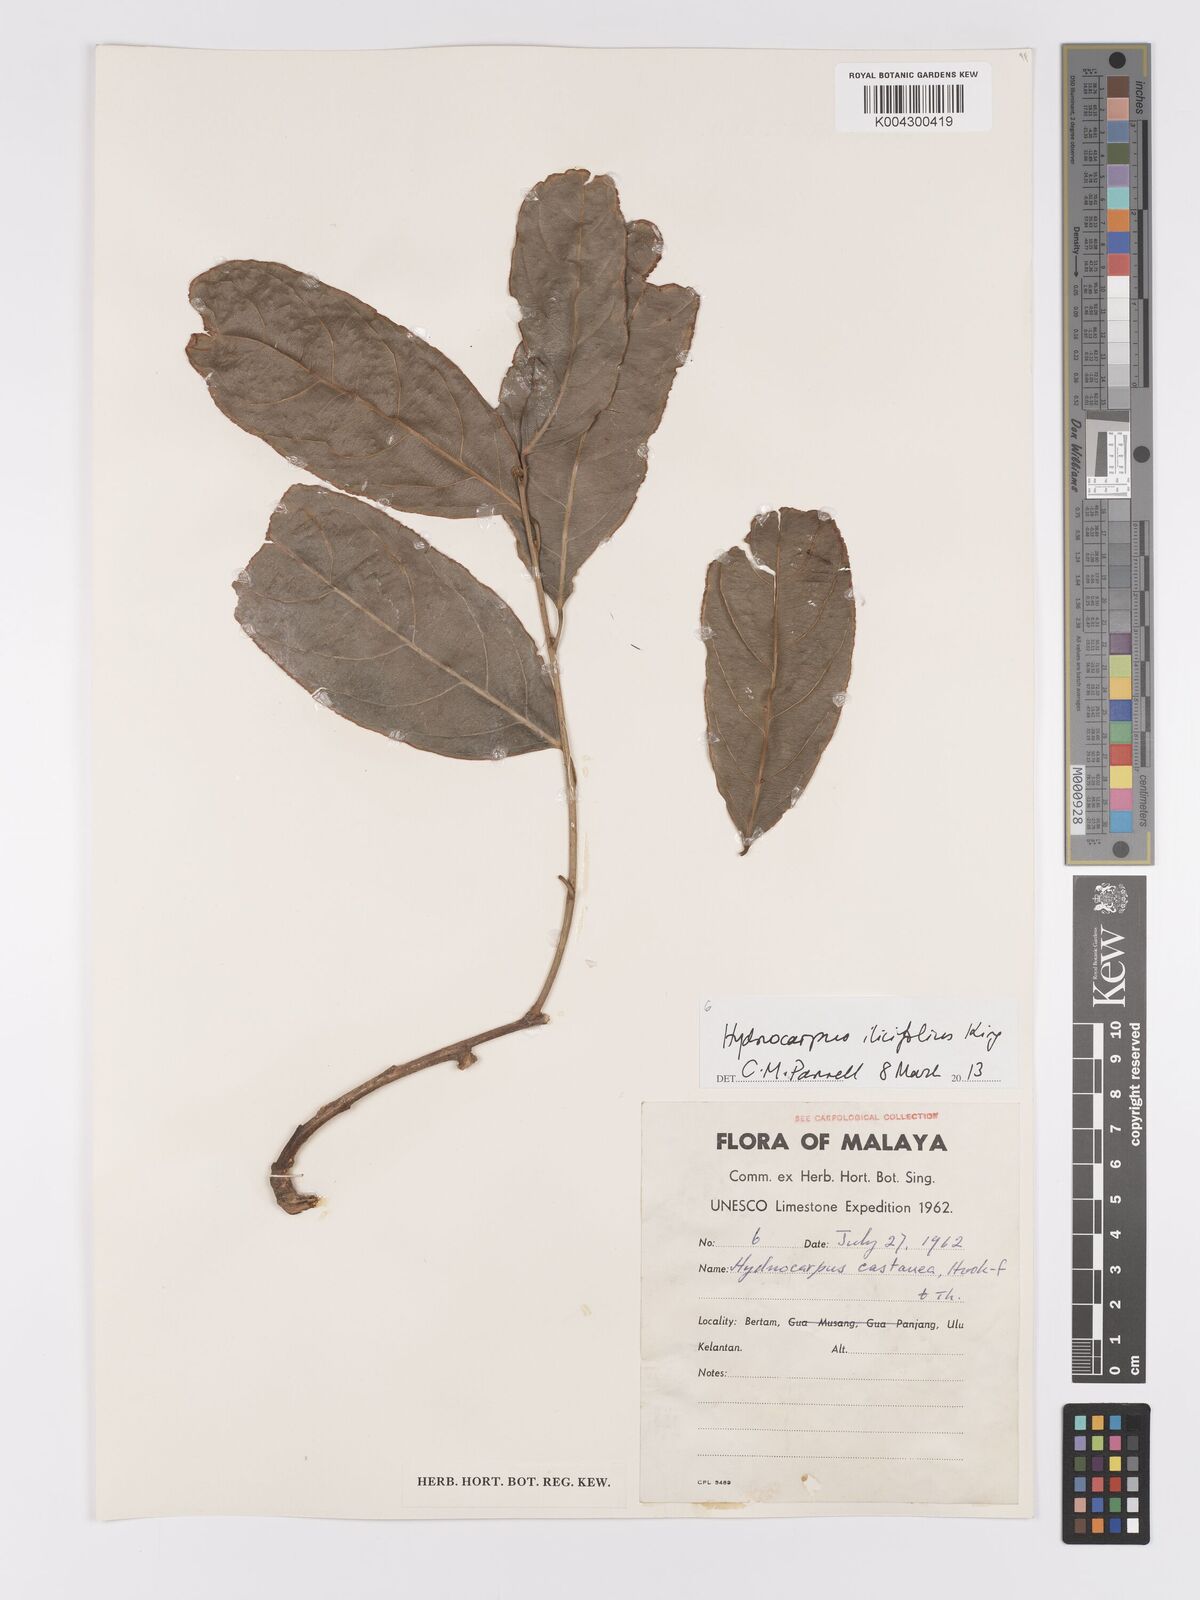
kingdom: Plantae
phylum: Tracheophyta
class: Magnoliopsida
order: Malpighiales
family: Achariaceae
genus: Hydnocarpus
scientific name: Hydnocarpus ilicifolius
